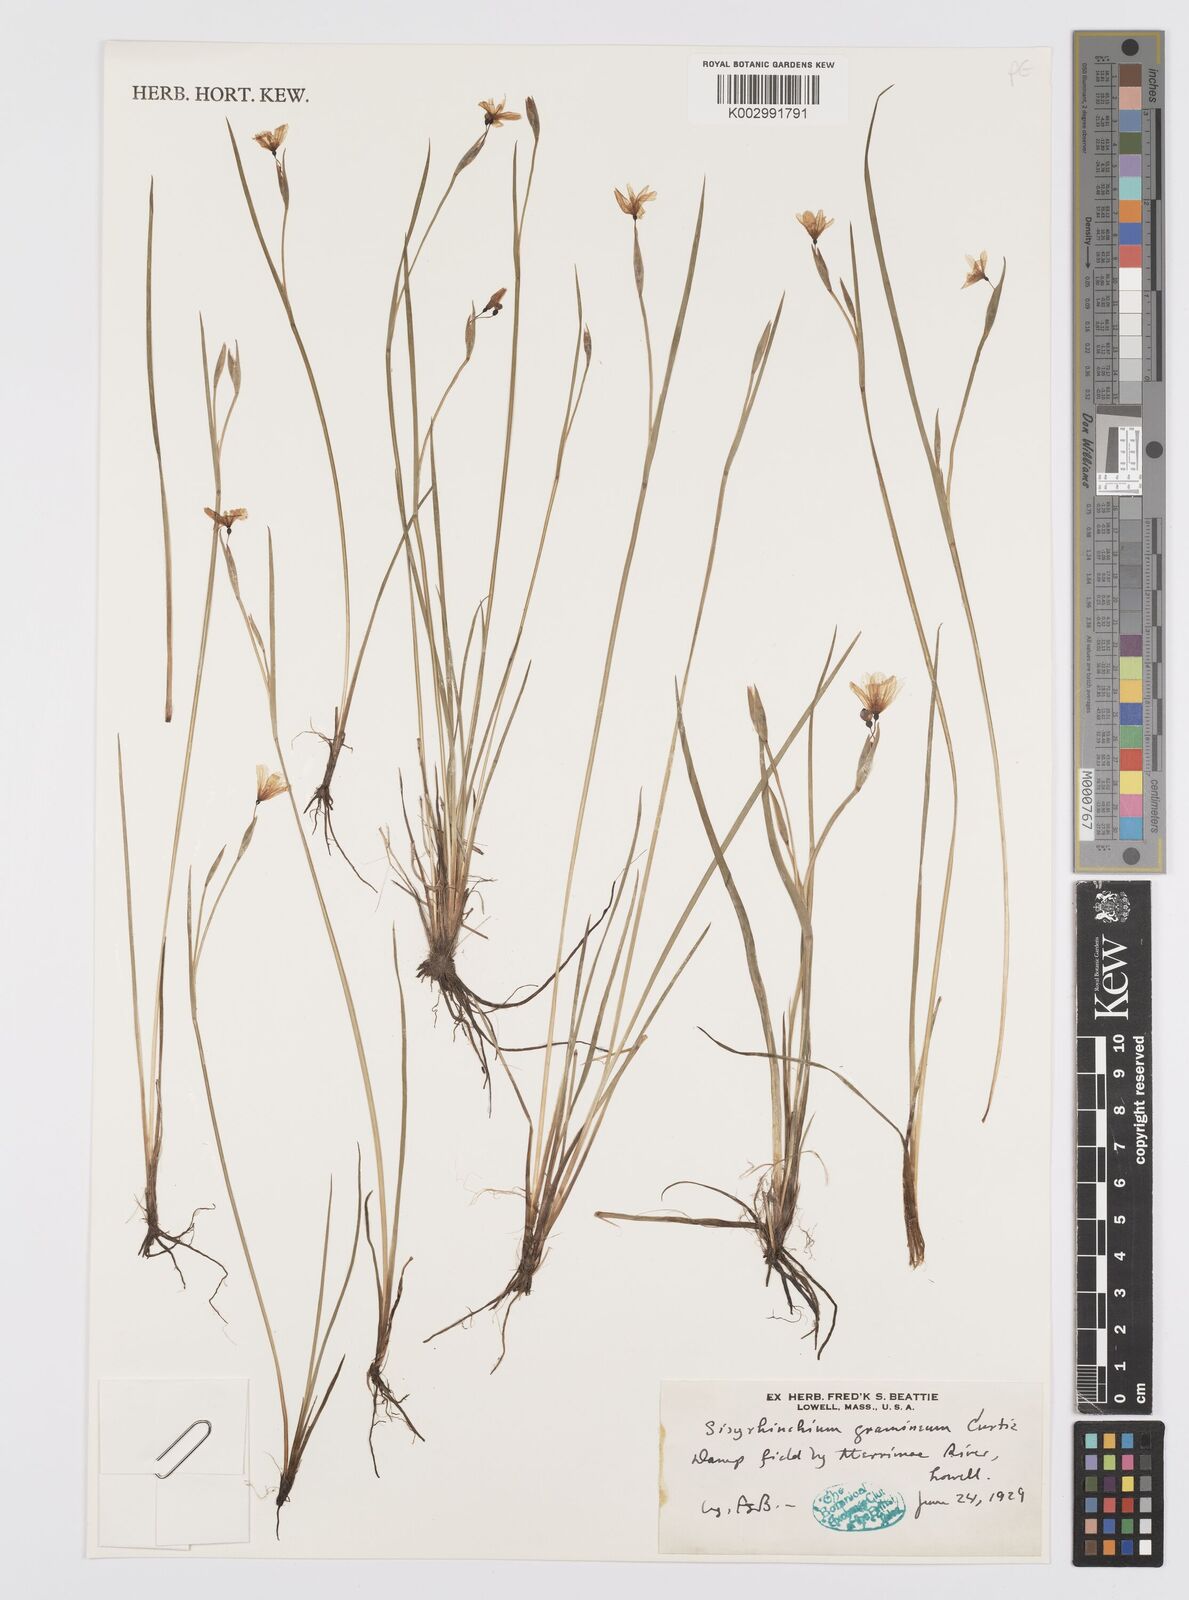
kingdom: Plantae
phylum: Tracheophyta
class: Liliopsida
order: Asparagales
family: Iridaceae
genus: Sisyrinchium
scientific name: Sisyrinchium bermudiana
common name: Blue-eyed-grass
